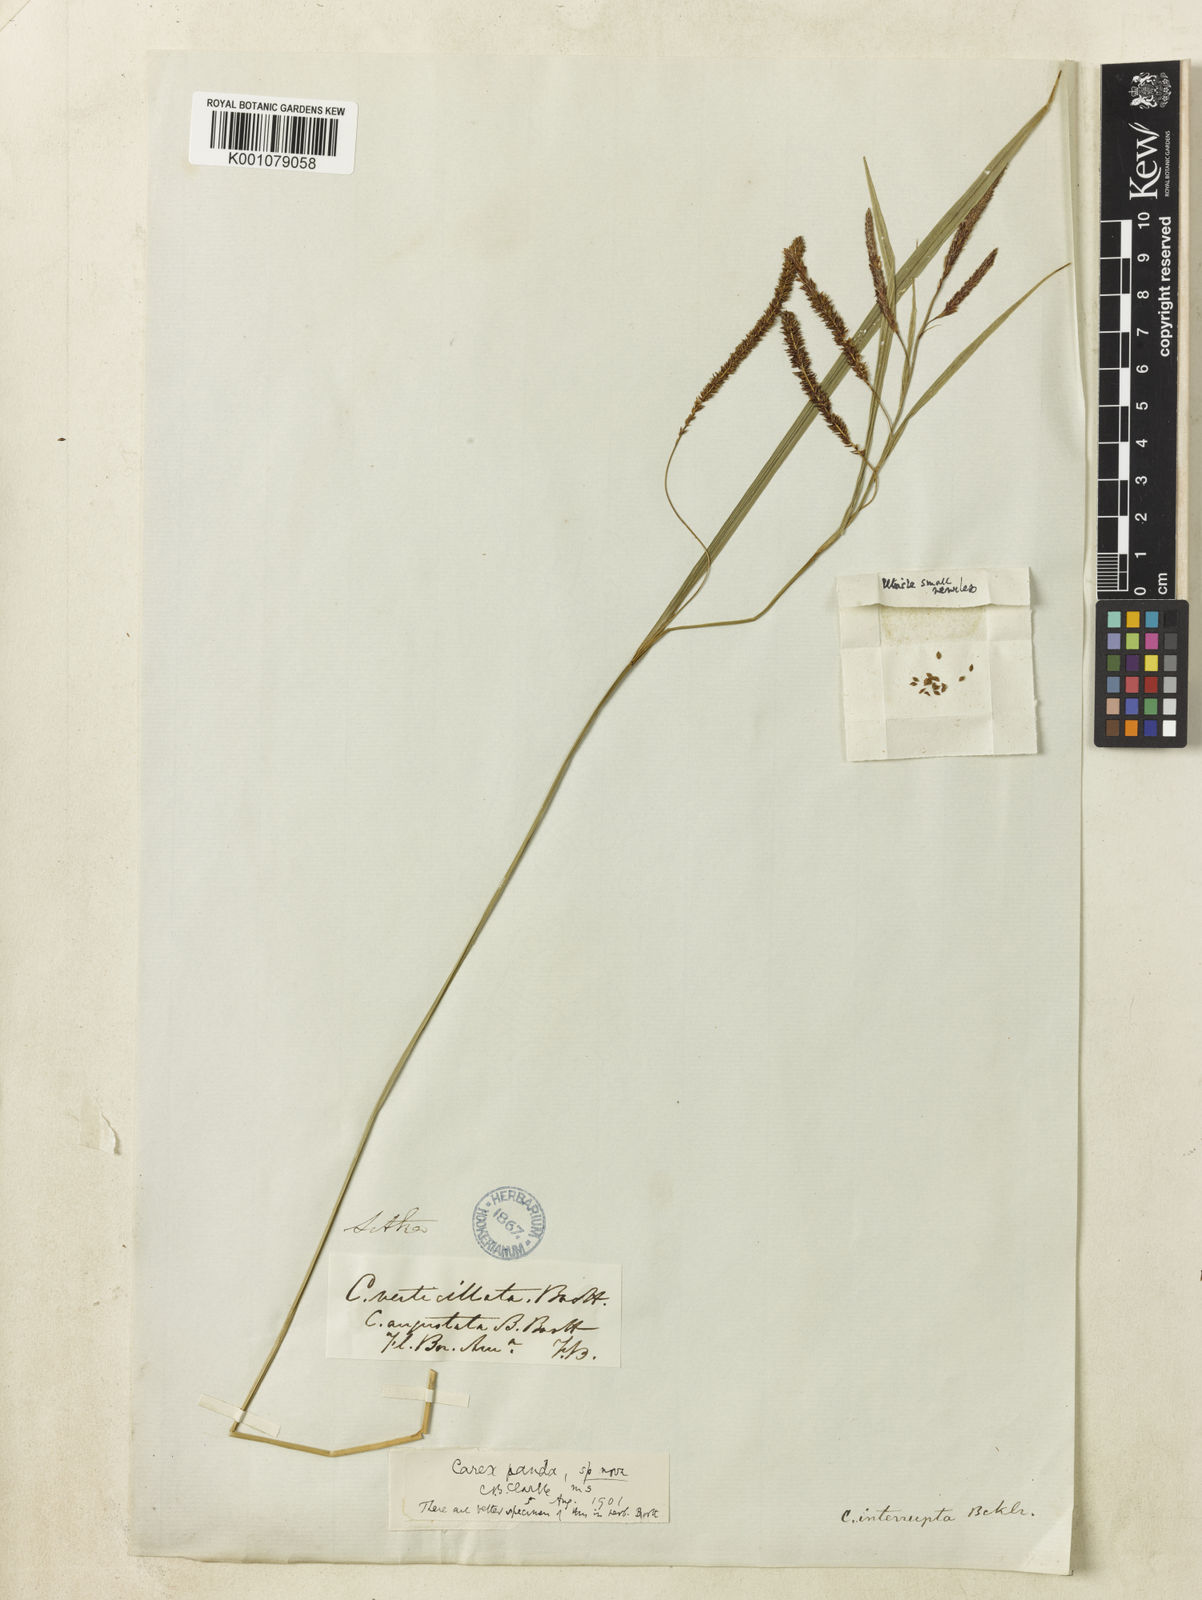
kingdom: Plantae
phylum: Tracheophyta
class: Liliopsida
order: Poales
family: Cyperaceae
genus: Carex
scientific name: Carex aquatilis
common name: Water sedge
